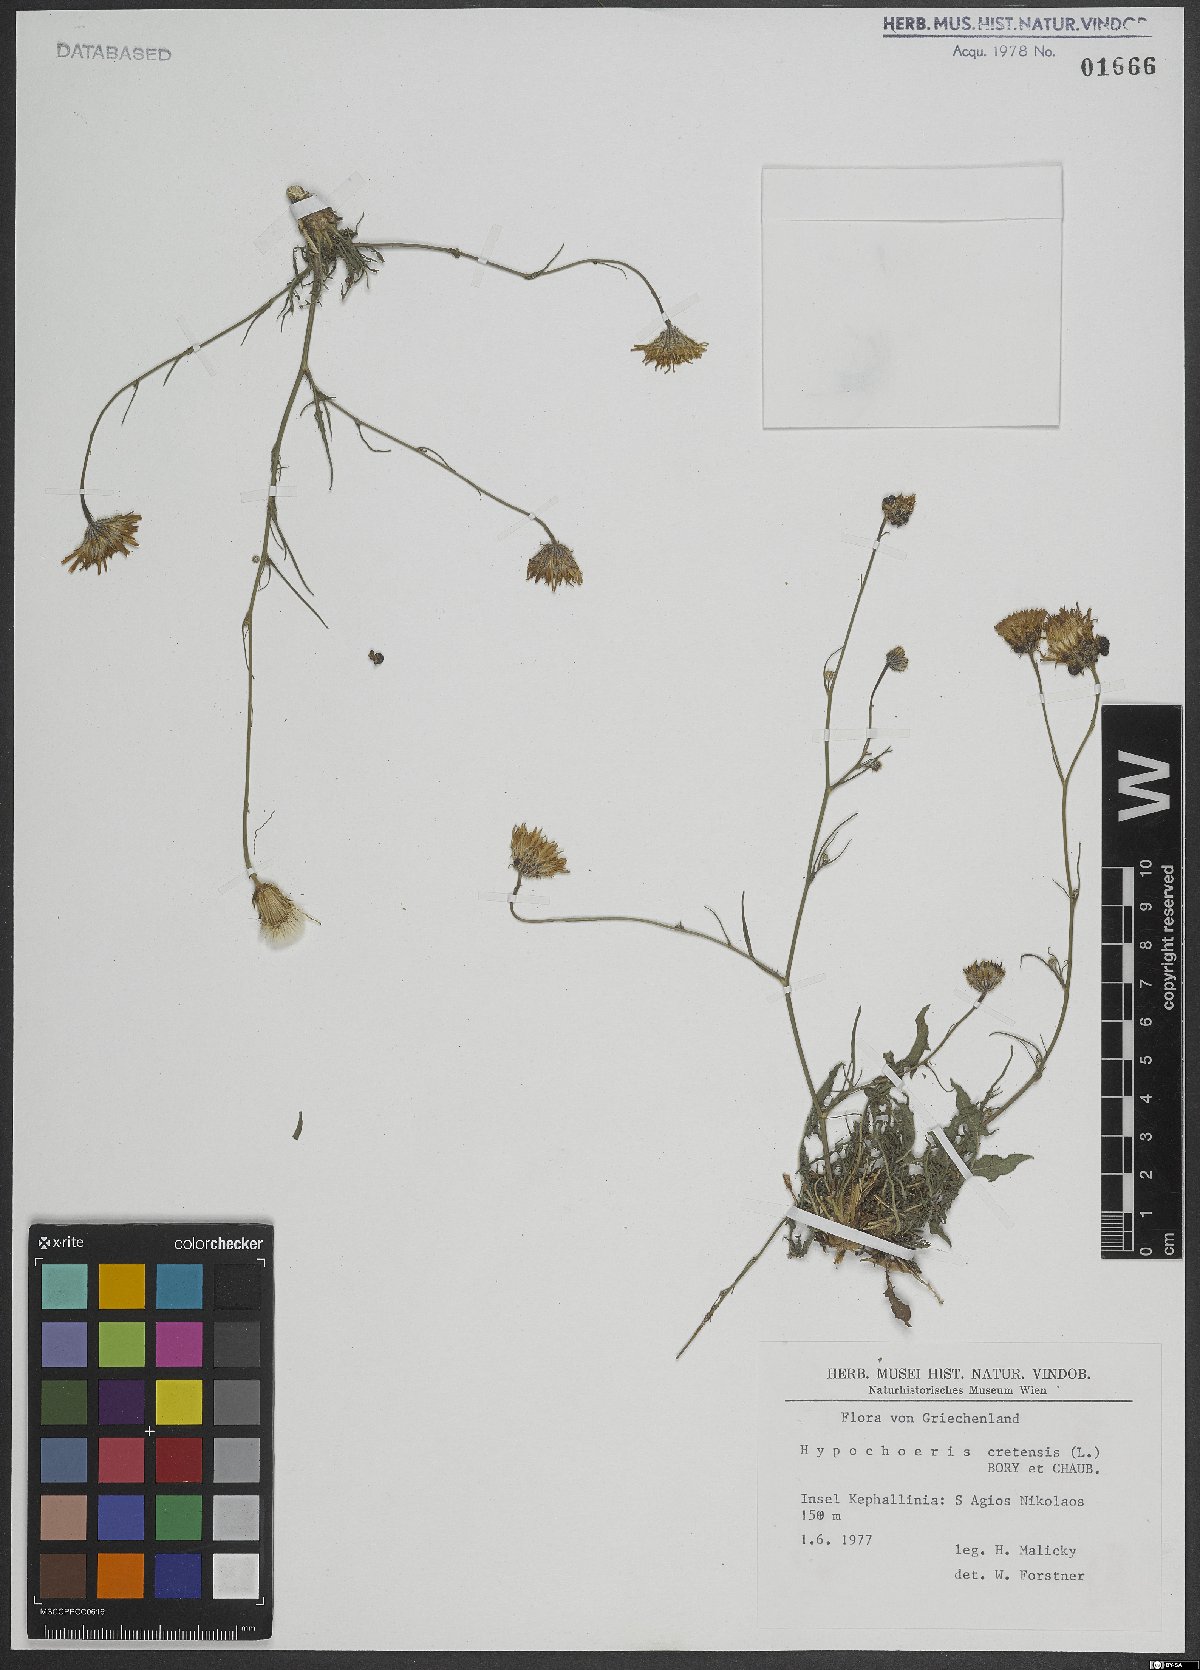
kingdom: Plantae
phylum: Tracheophyta
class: Magnoliopsida
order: Asterales
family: Asteraceae
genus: Hypochaeris
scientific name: Hypochaeris cretensis
